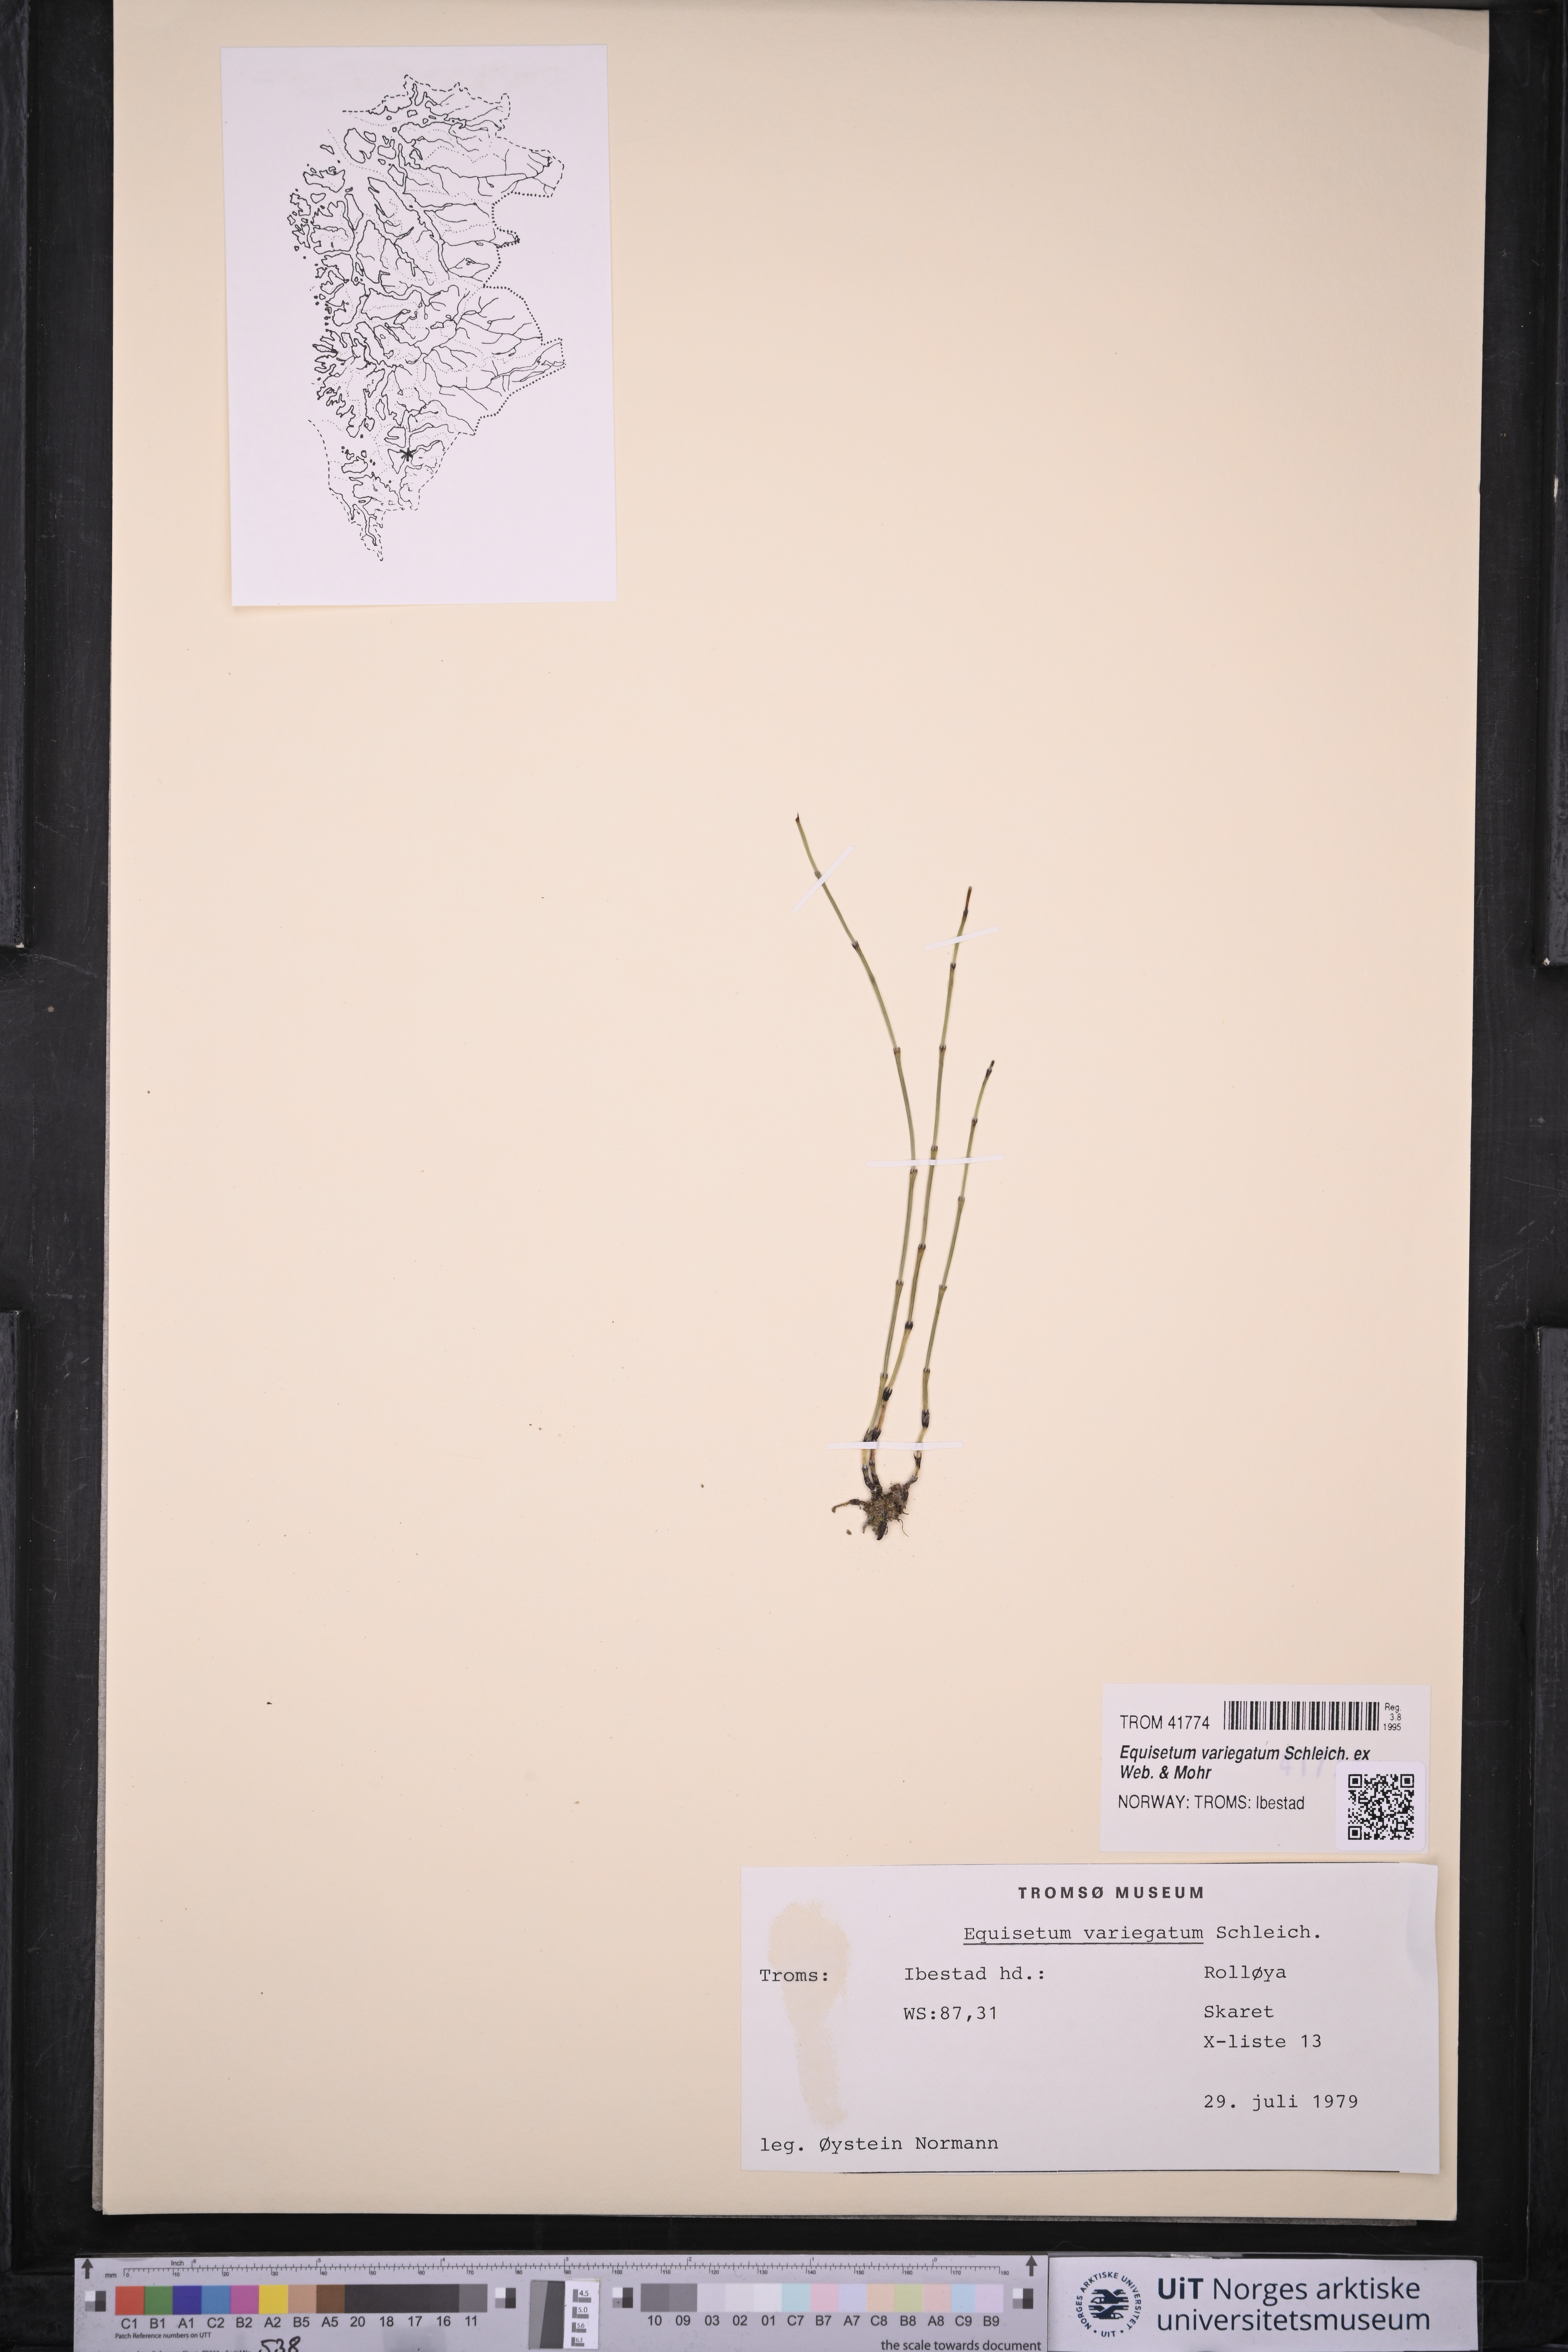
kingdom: Plantae
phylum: Tracheophyta
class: Polypodiopsida
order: Equisetales
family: Equisetaceae
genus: Equisetum
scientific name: Equisetum variegatum
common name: Variegated horsetail
